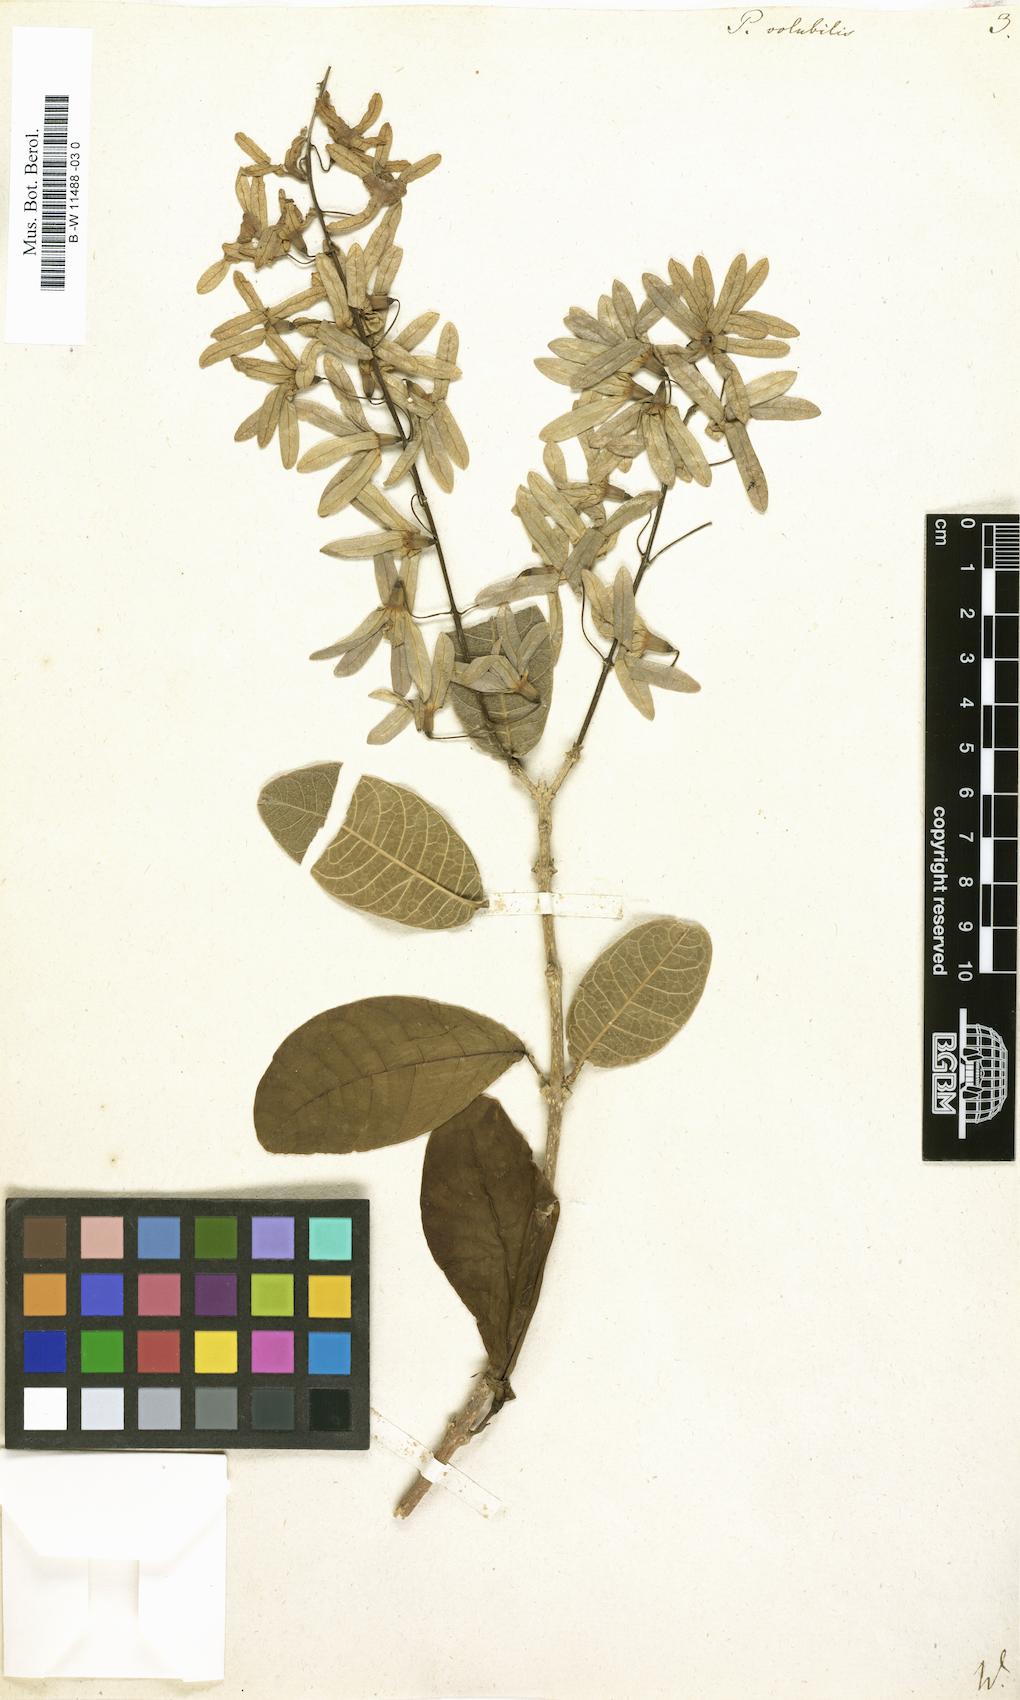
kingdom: Plantae
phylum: Tracheophyta
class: Magnoliopsida
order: Lamiales
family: Verbenaceae
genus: Petrea
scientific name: Petrea volubilis
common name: Queen's-wreath
